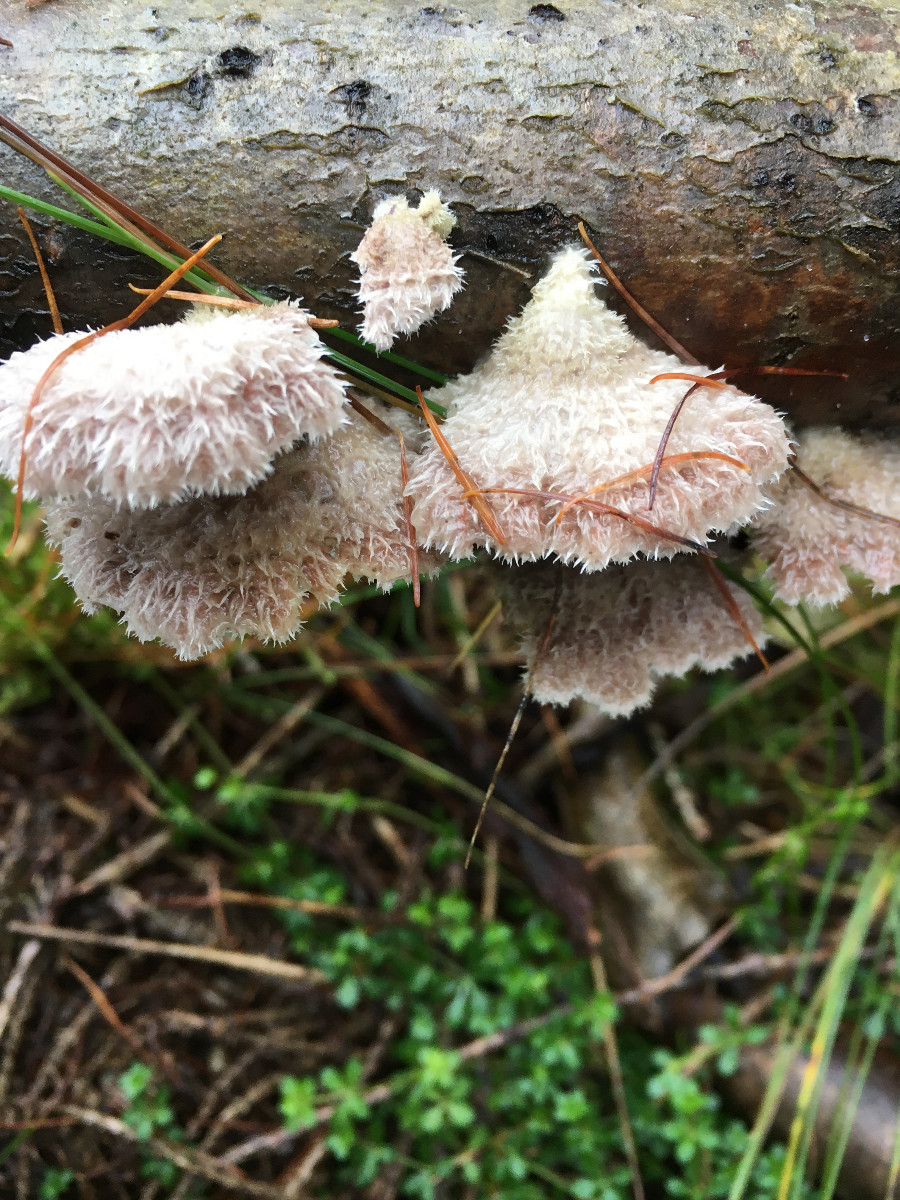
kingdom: Fungi
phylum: Basidiomycota
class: Agaricomycetes
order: Agaricales
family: Schizophyllaceae
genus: Schizophyllum
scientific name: Schizophyllum commune
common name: kløvblad
